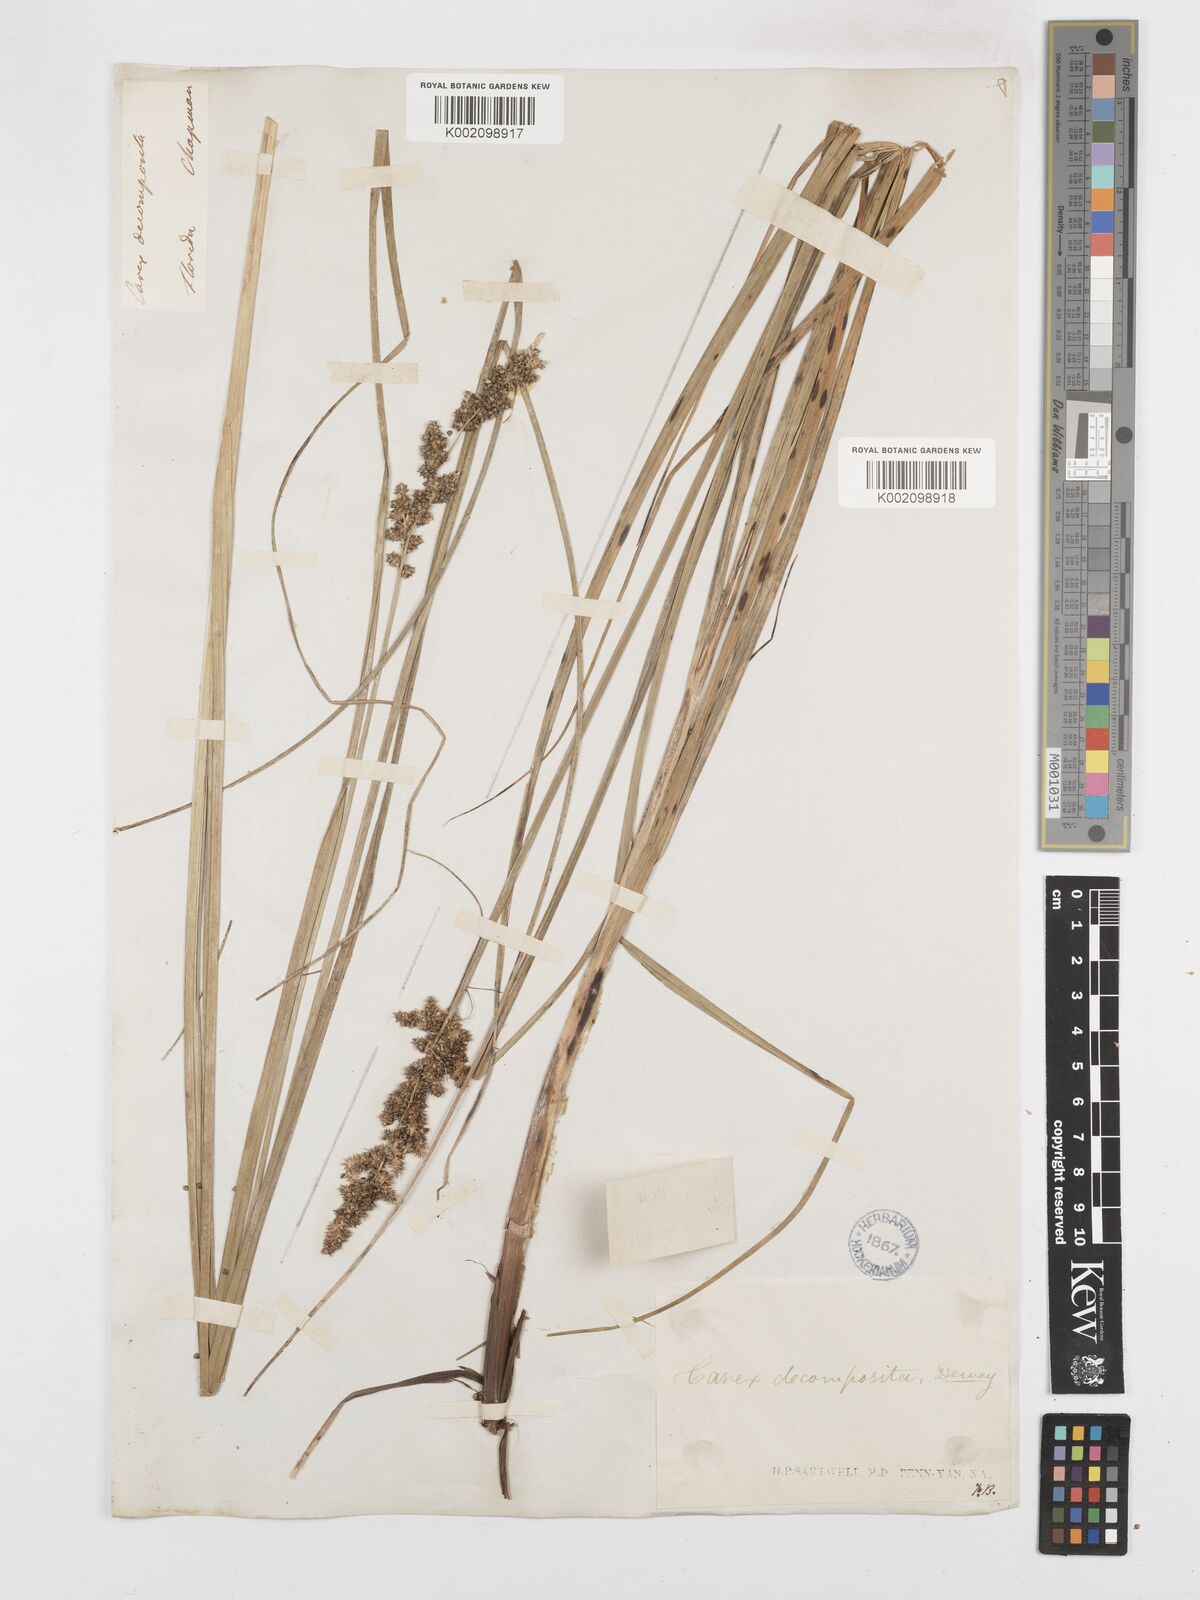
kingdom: Plantae
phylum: Tracheophyta
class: Liliopsida
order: Poales
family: Cyperaceae
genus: Carex
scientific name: Carex decomposita
